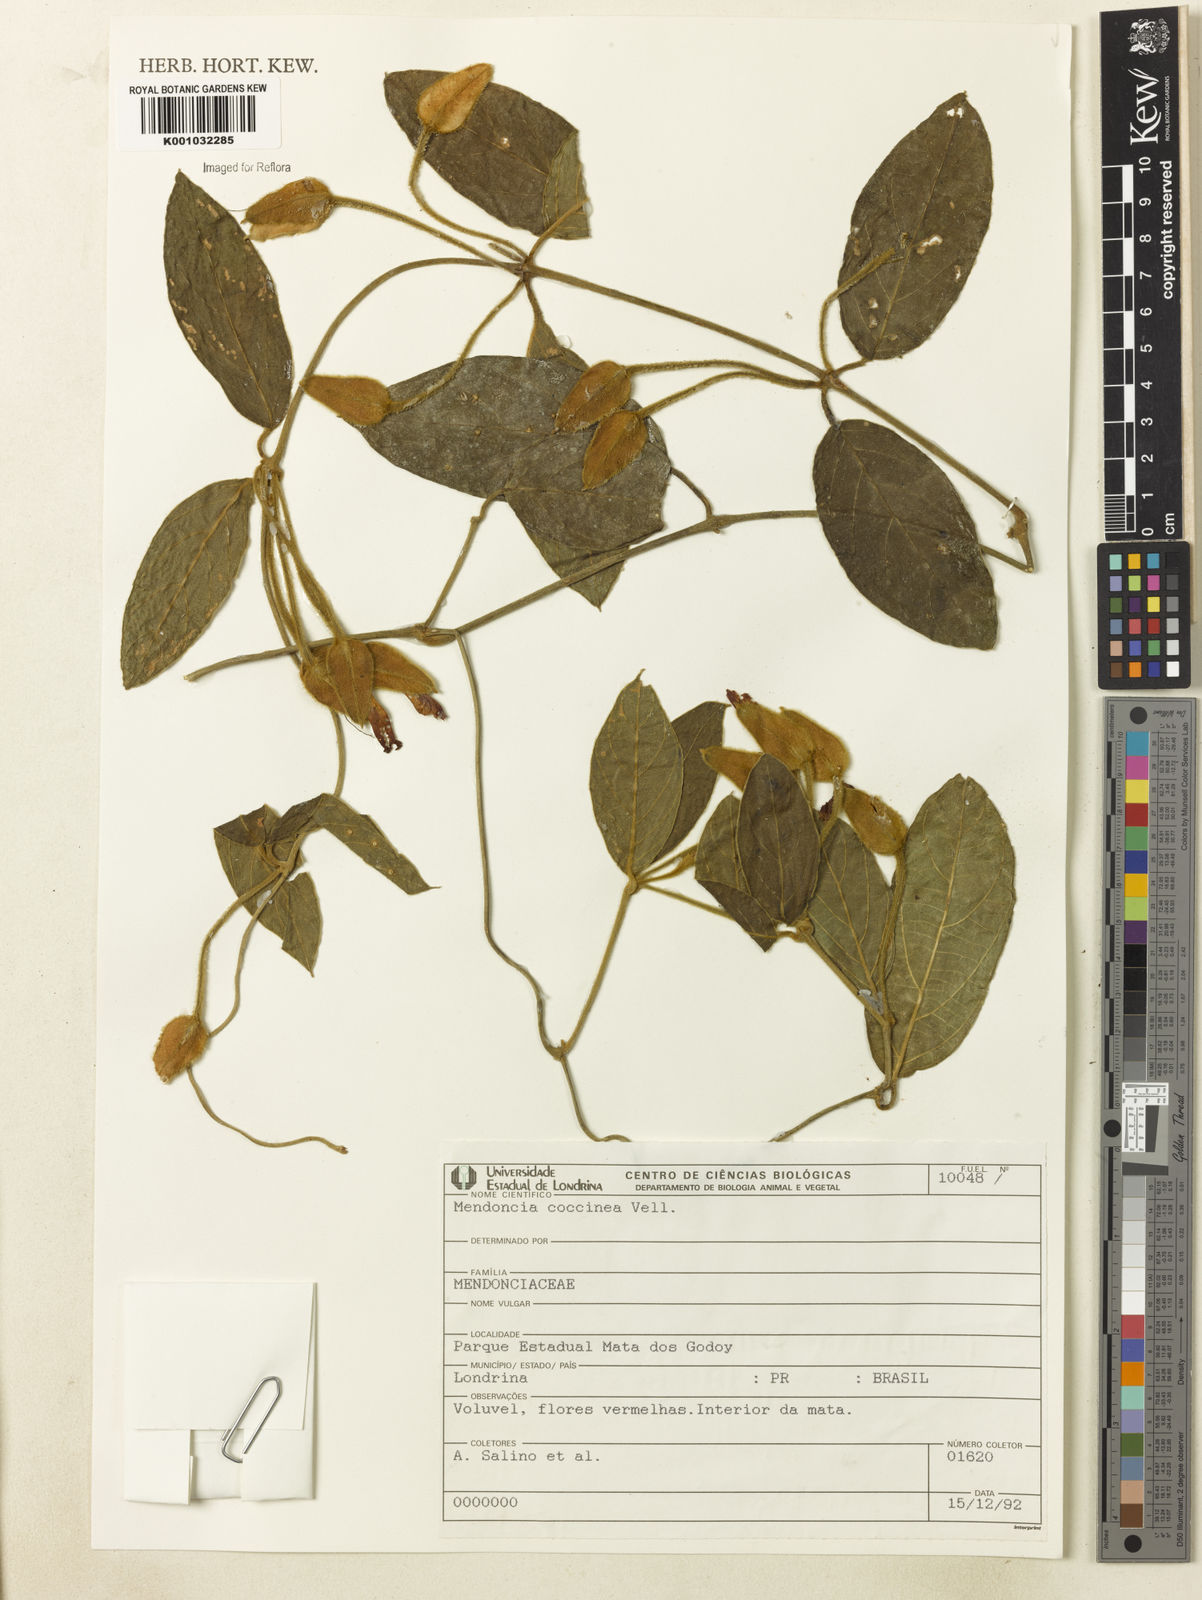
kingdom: Plantae
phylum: Tracheophyta
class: Magnoliopsida
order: Lamiales
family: Acanthaceae
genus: Mendoncia
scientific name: Mendoncia coccinea
